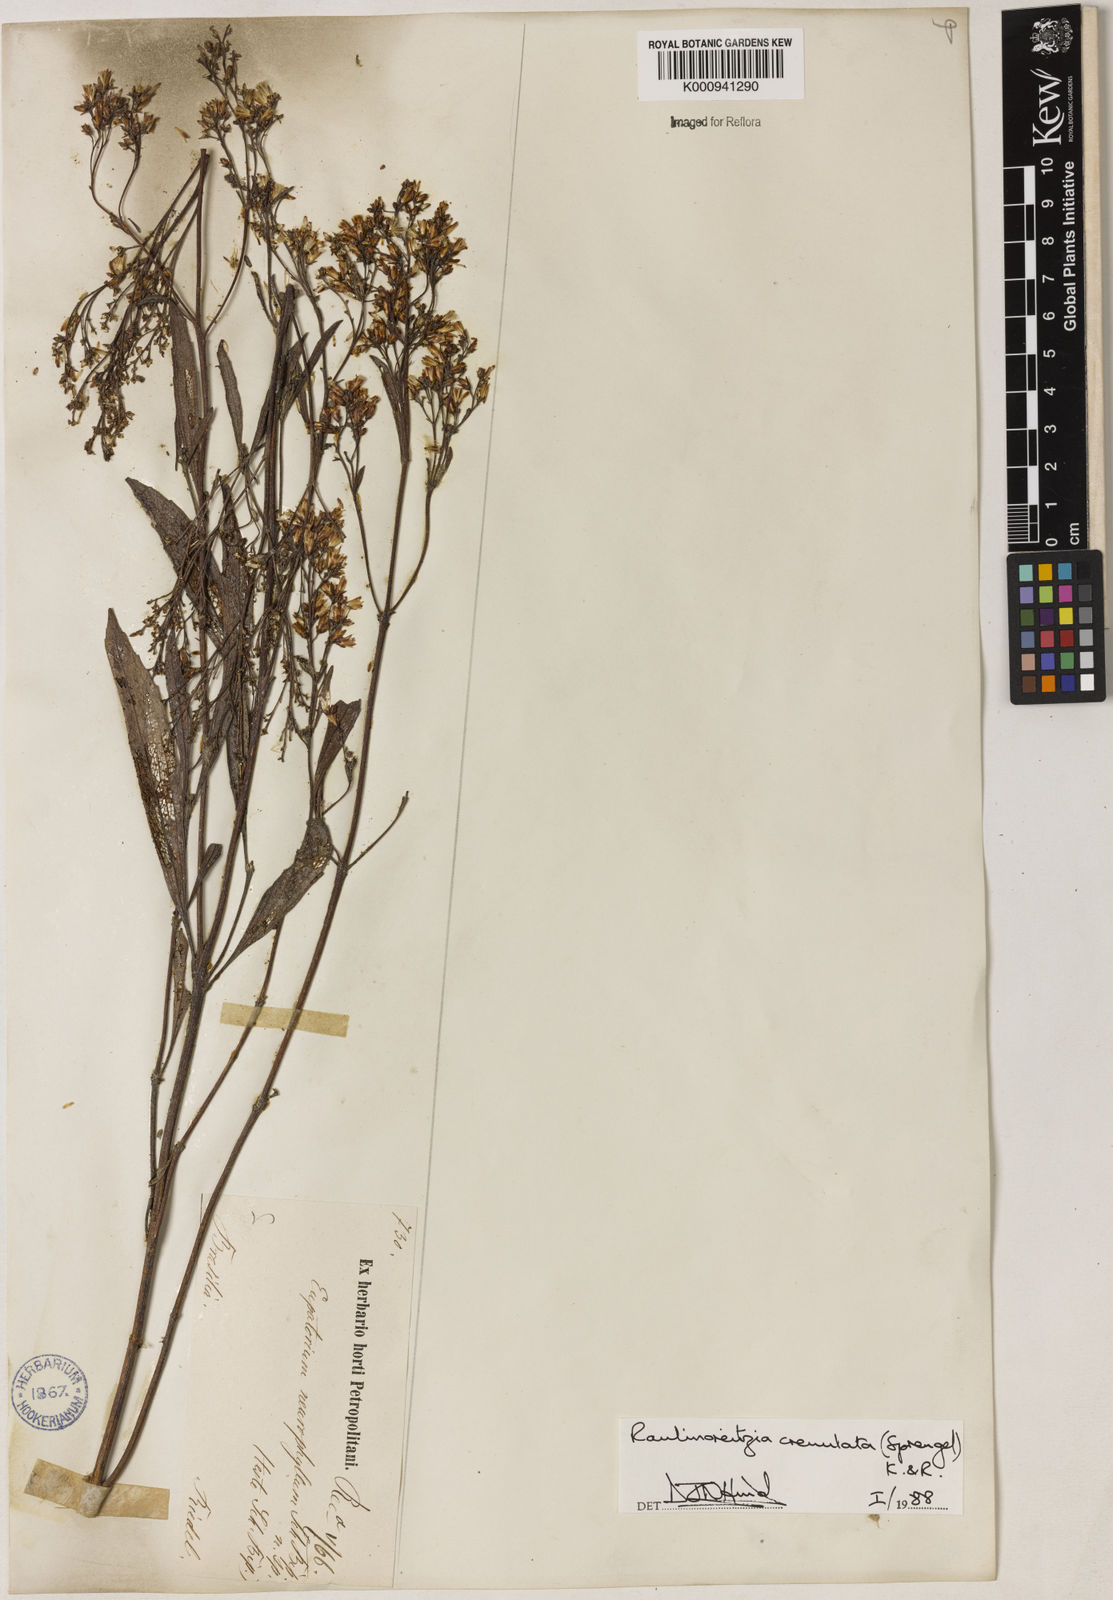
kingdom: Plantae
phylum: Tracheophyta
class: Magnoliopsida
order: Asterales
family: Asteraceae
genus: Raulinoreitzia
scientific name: Raulinoreitzia crenulata
